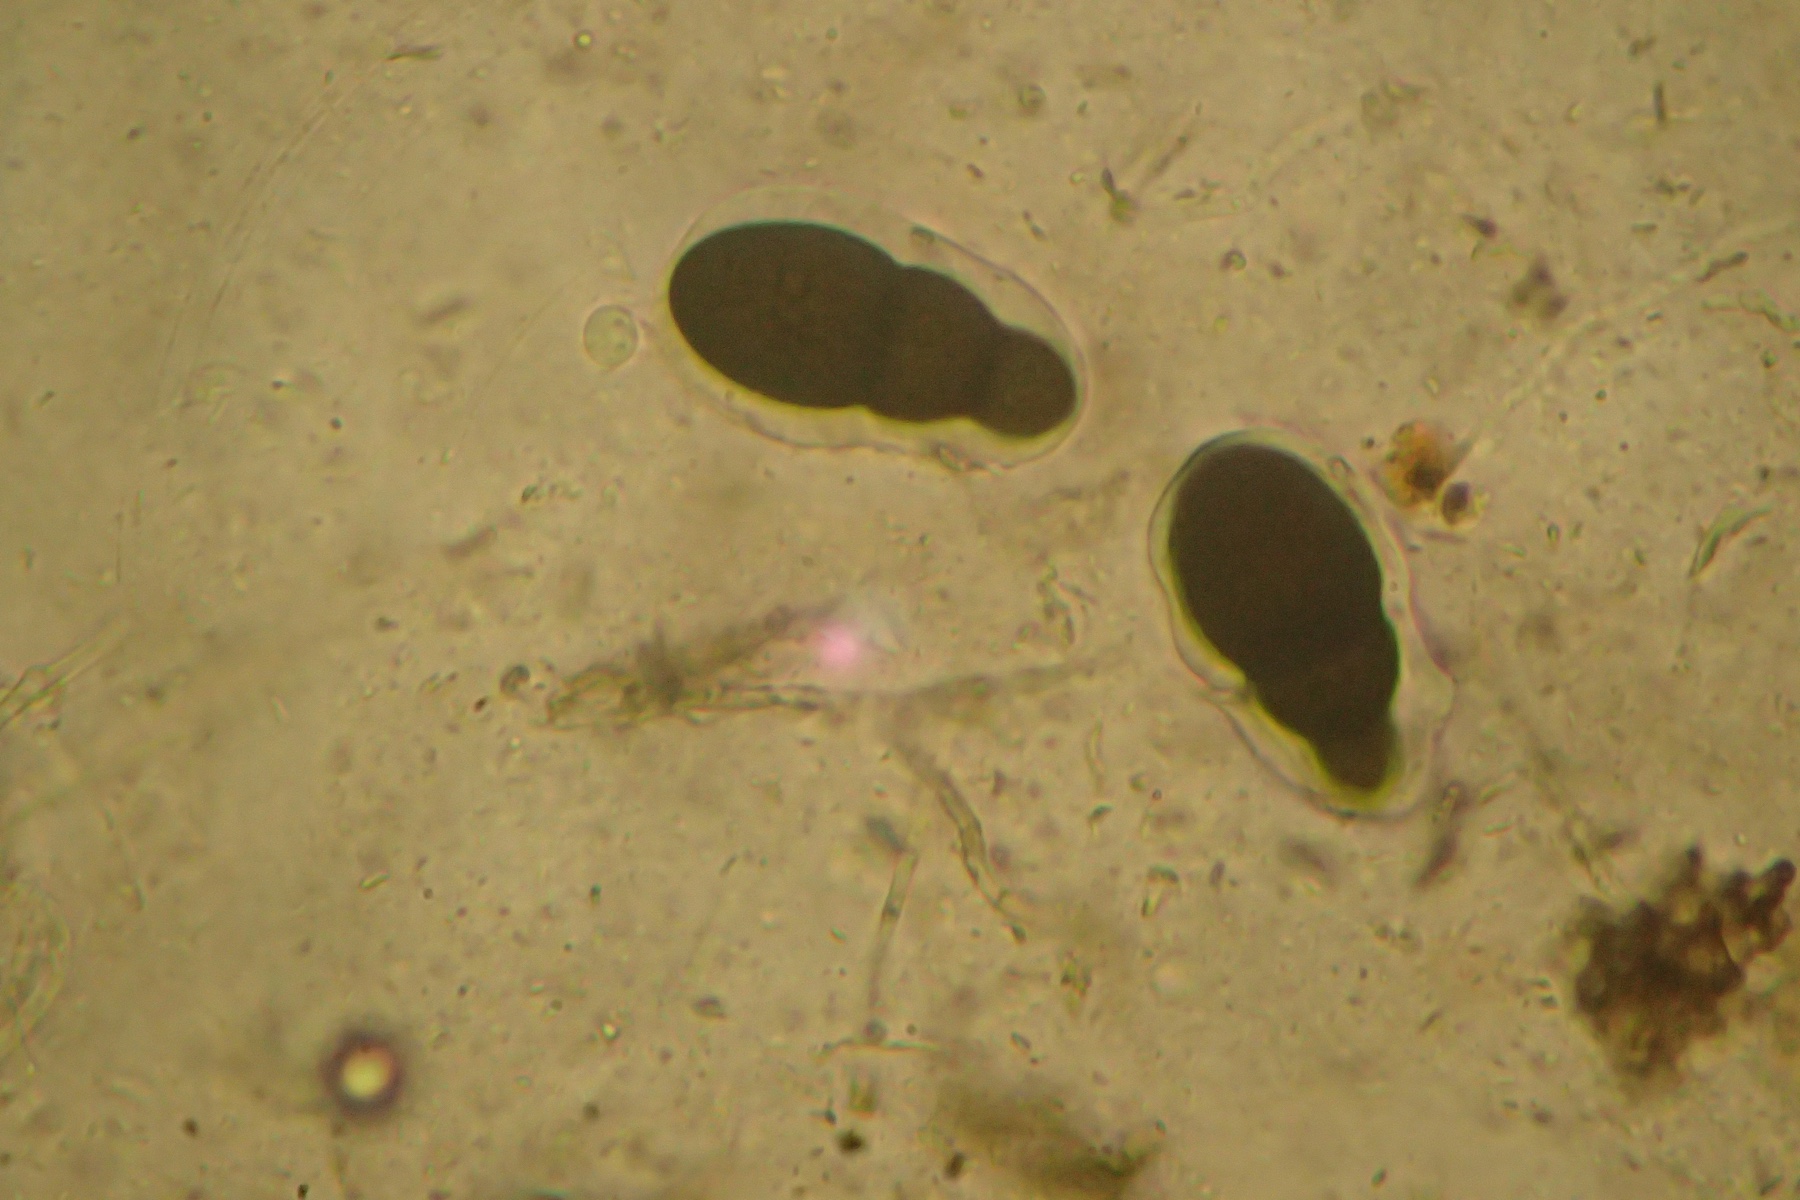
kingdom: Fungi
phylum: Ascomycota
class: Dothideomycetes
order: Pleosporales
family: Pleomassariaceae
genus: Splanchnonema
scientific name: Splanchnonema foedans
